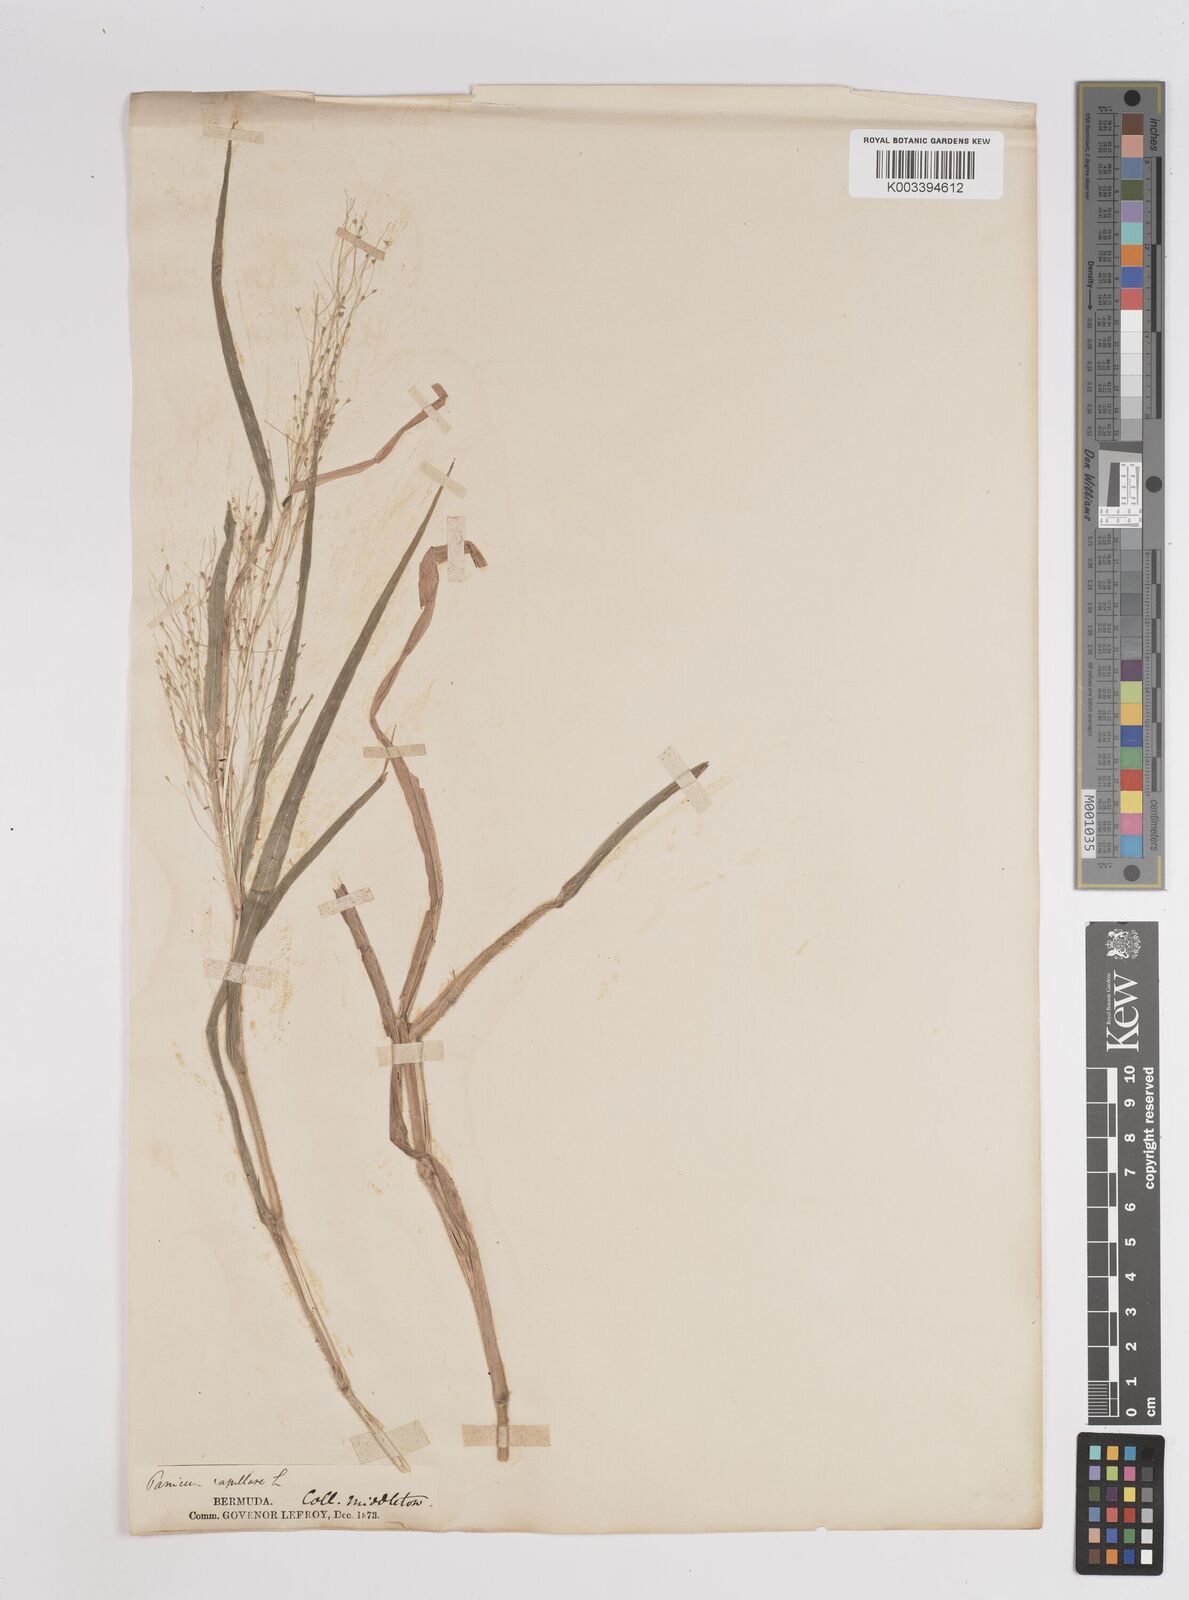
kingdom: Plantae
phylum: Tracheophyta
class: Liliopsida
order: Poales
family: Poaceae
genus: Panicum
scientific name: Panicum capillare
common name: Witch-grass
